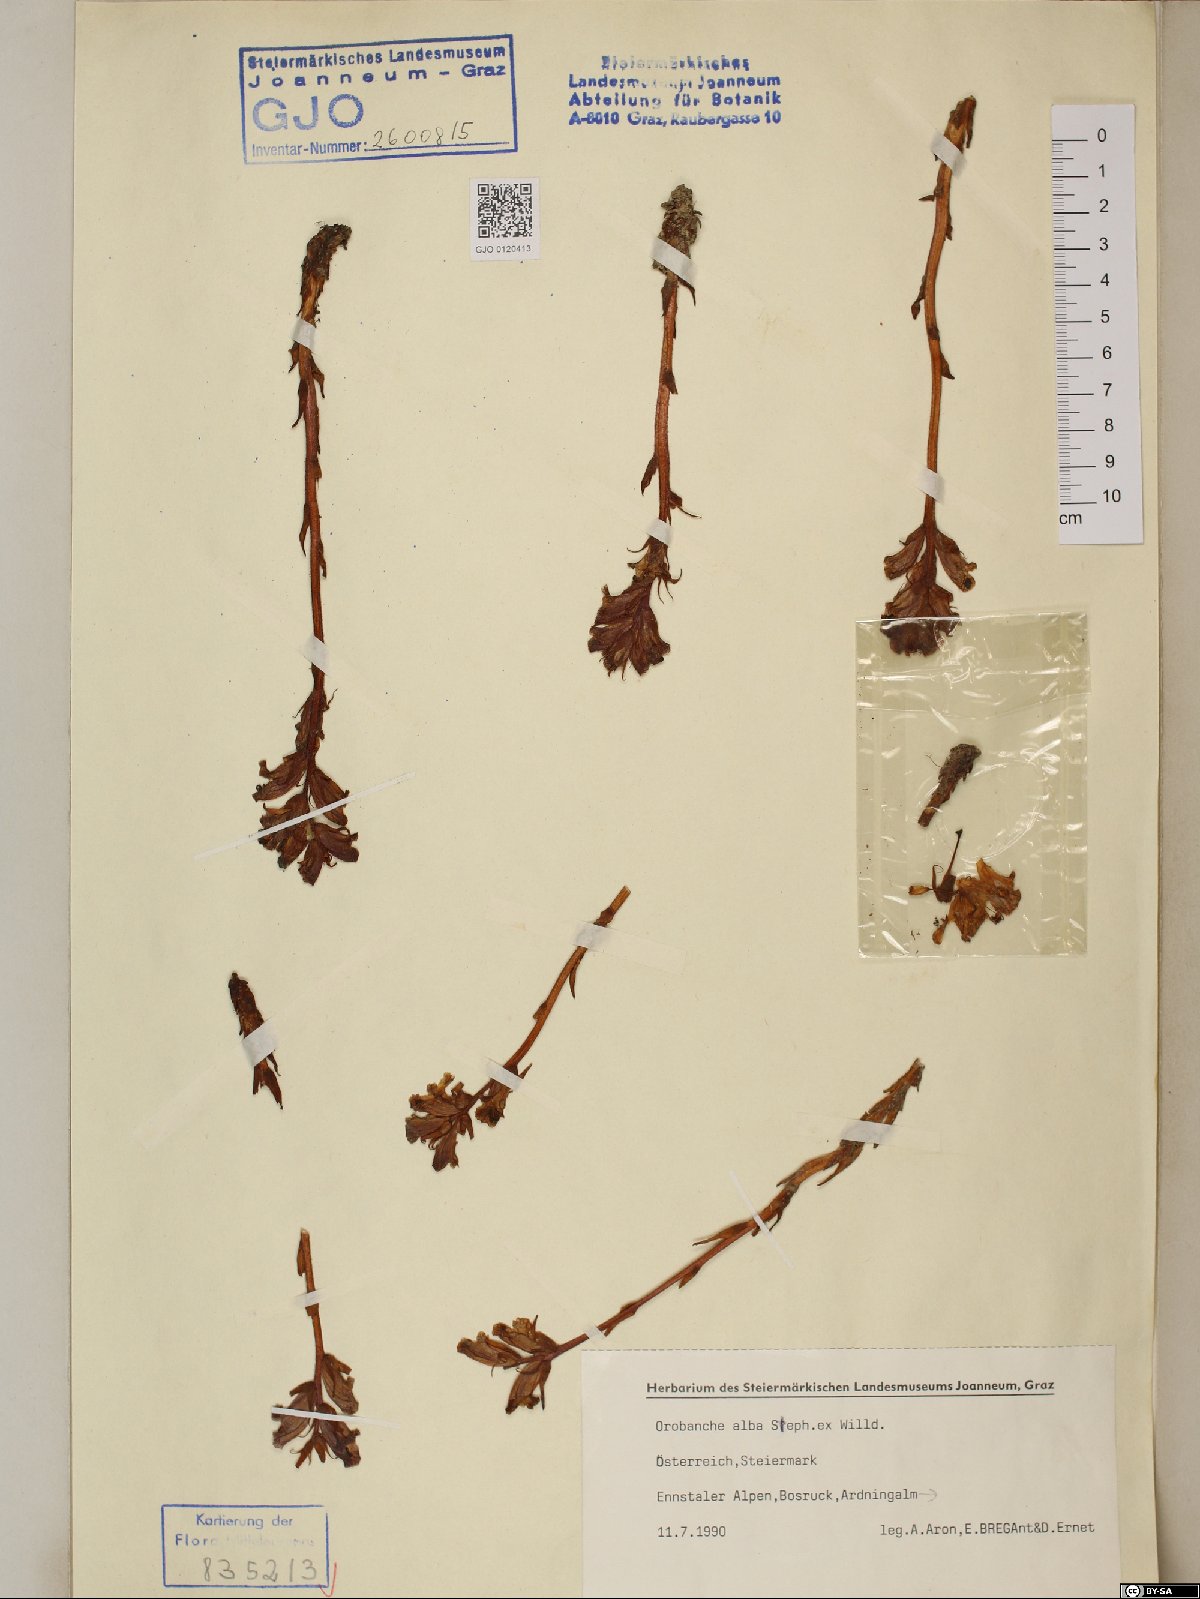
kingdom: Plantae
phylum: Tracheophyta
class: Magnoliopsida
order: Lamiales
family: Orobanchaceae
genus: Orobanche
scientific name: Orobanche alba
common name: Thyme broomrape
